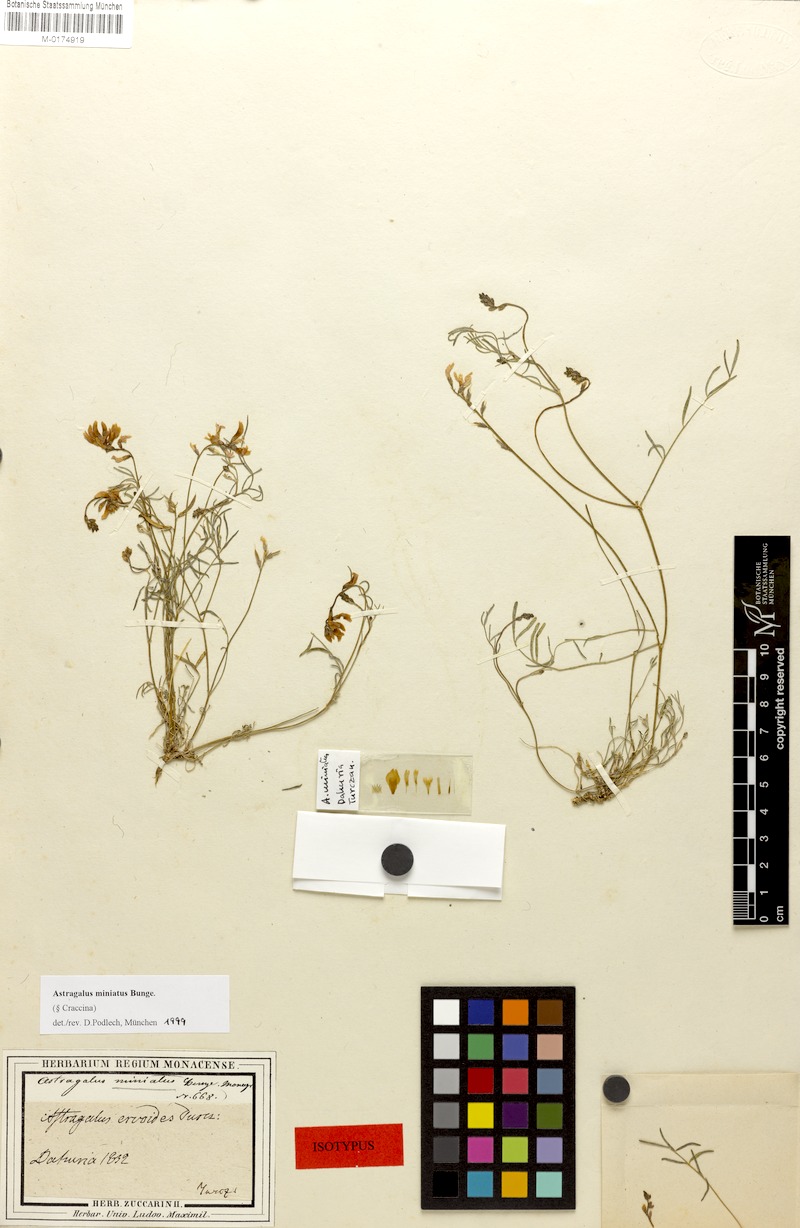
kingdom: Plantae
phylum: Tracheophyta
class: Magnoliopsida
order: Fabales
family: Fabaceae
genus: Astragalus
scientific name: Astragalus miniatus
